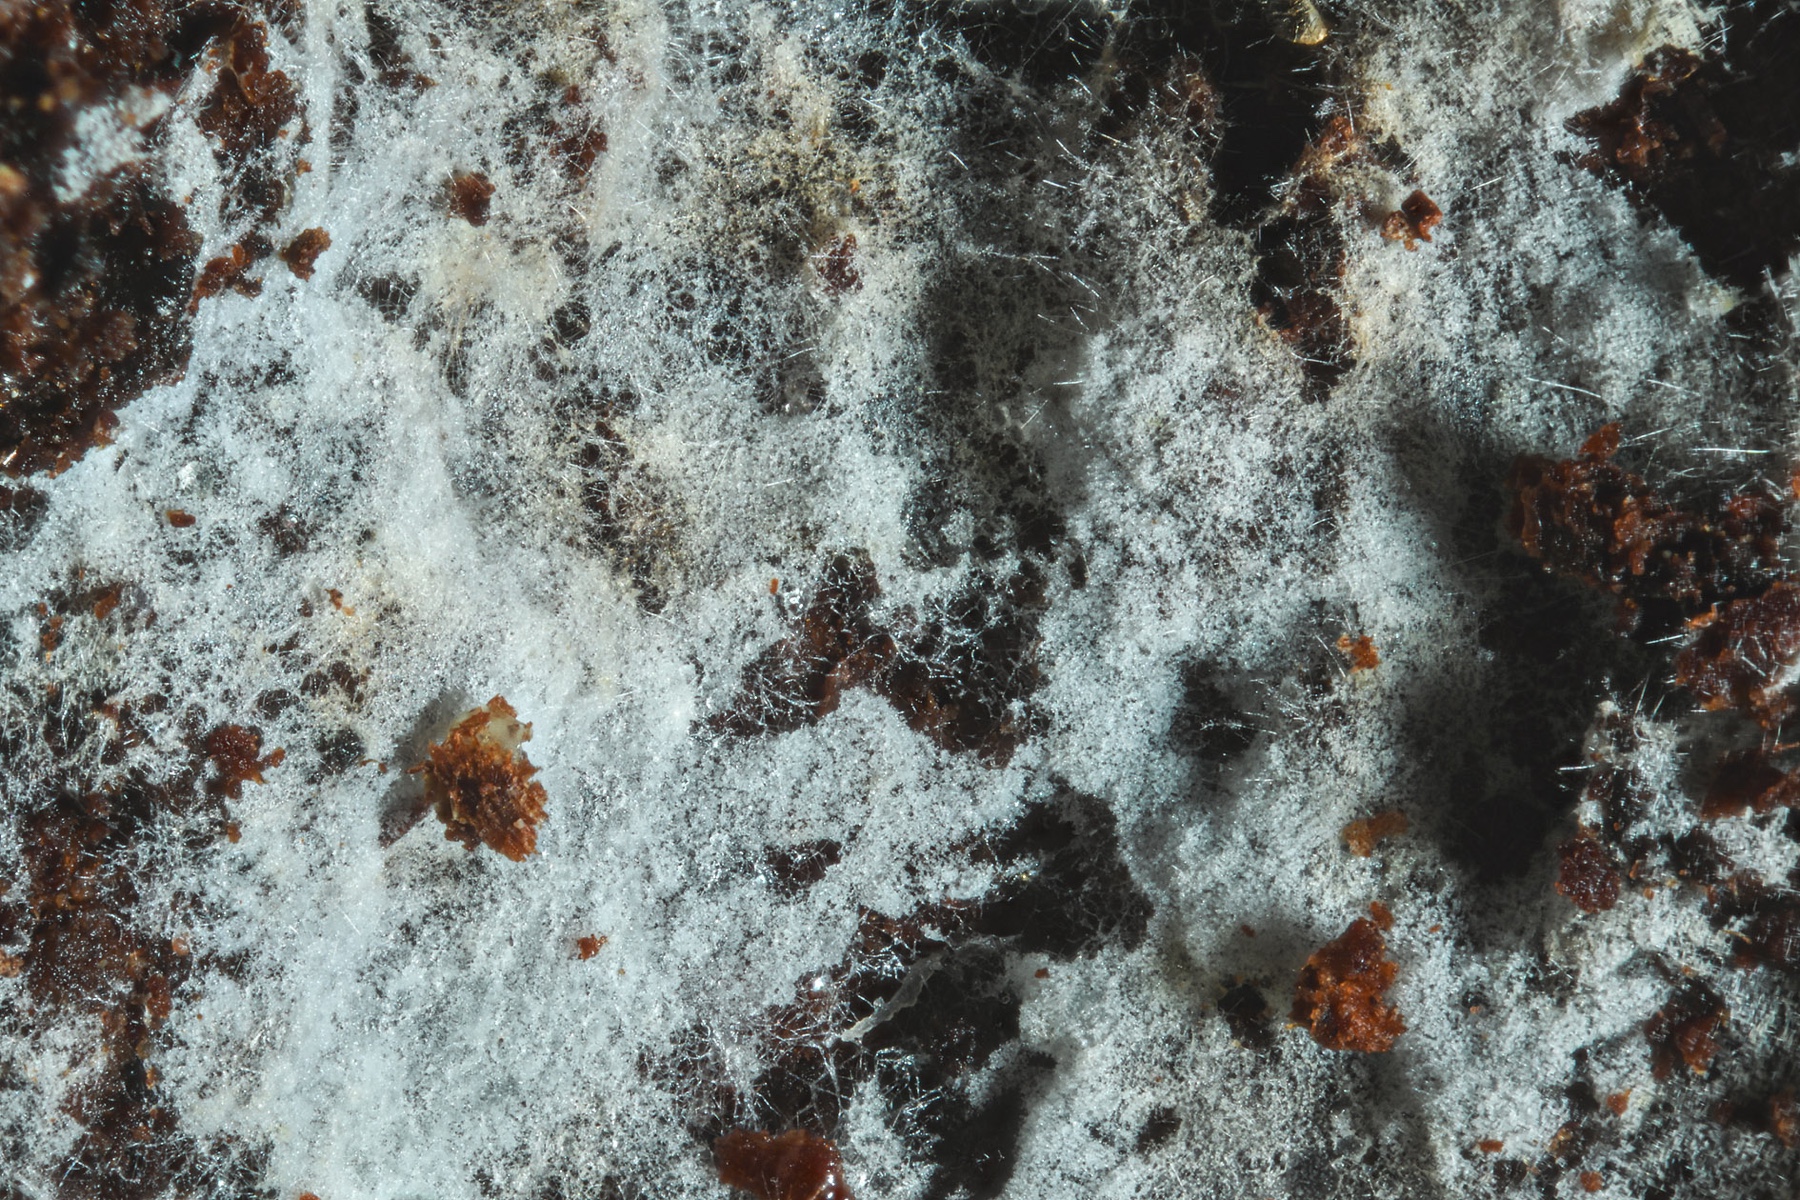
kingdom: Fungi
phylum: Basidiomycota
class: Agaricomycetes
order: Agaricales
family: Stephanosporaceae
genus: Lindtneria
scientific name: Lindtneria
